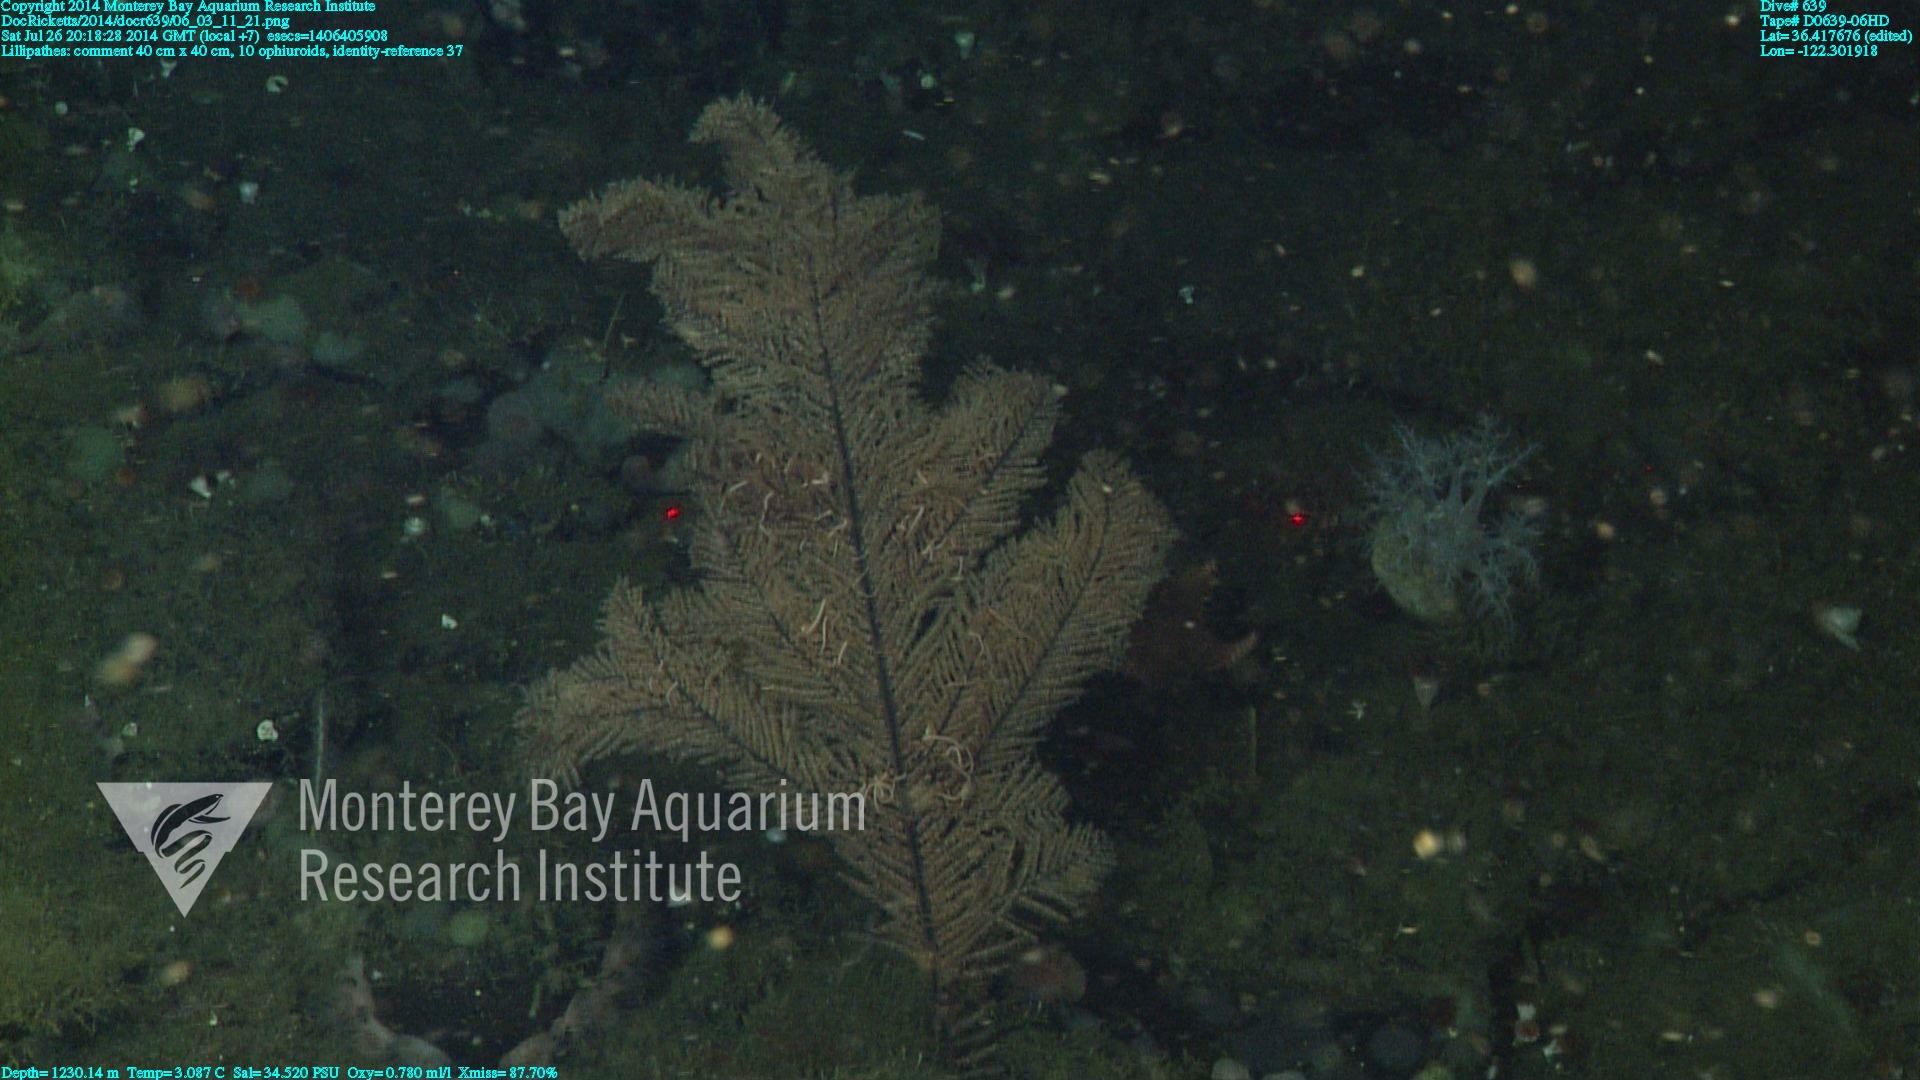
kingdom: Animalia
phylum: Cnidaria
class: Anthozoa
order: Antipatharia
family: Schizopathidae
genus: Lillipathes
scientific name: Lillipathes
